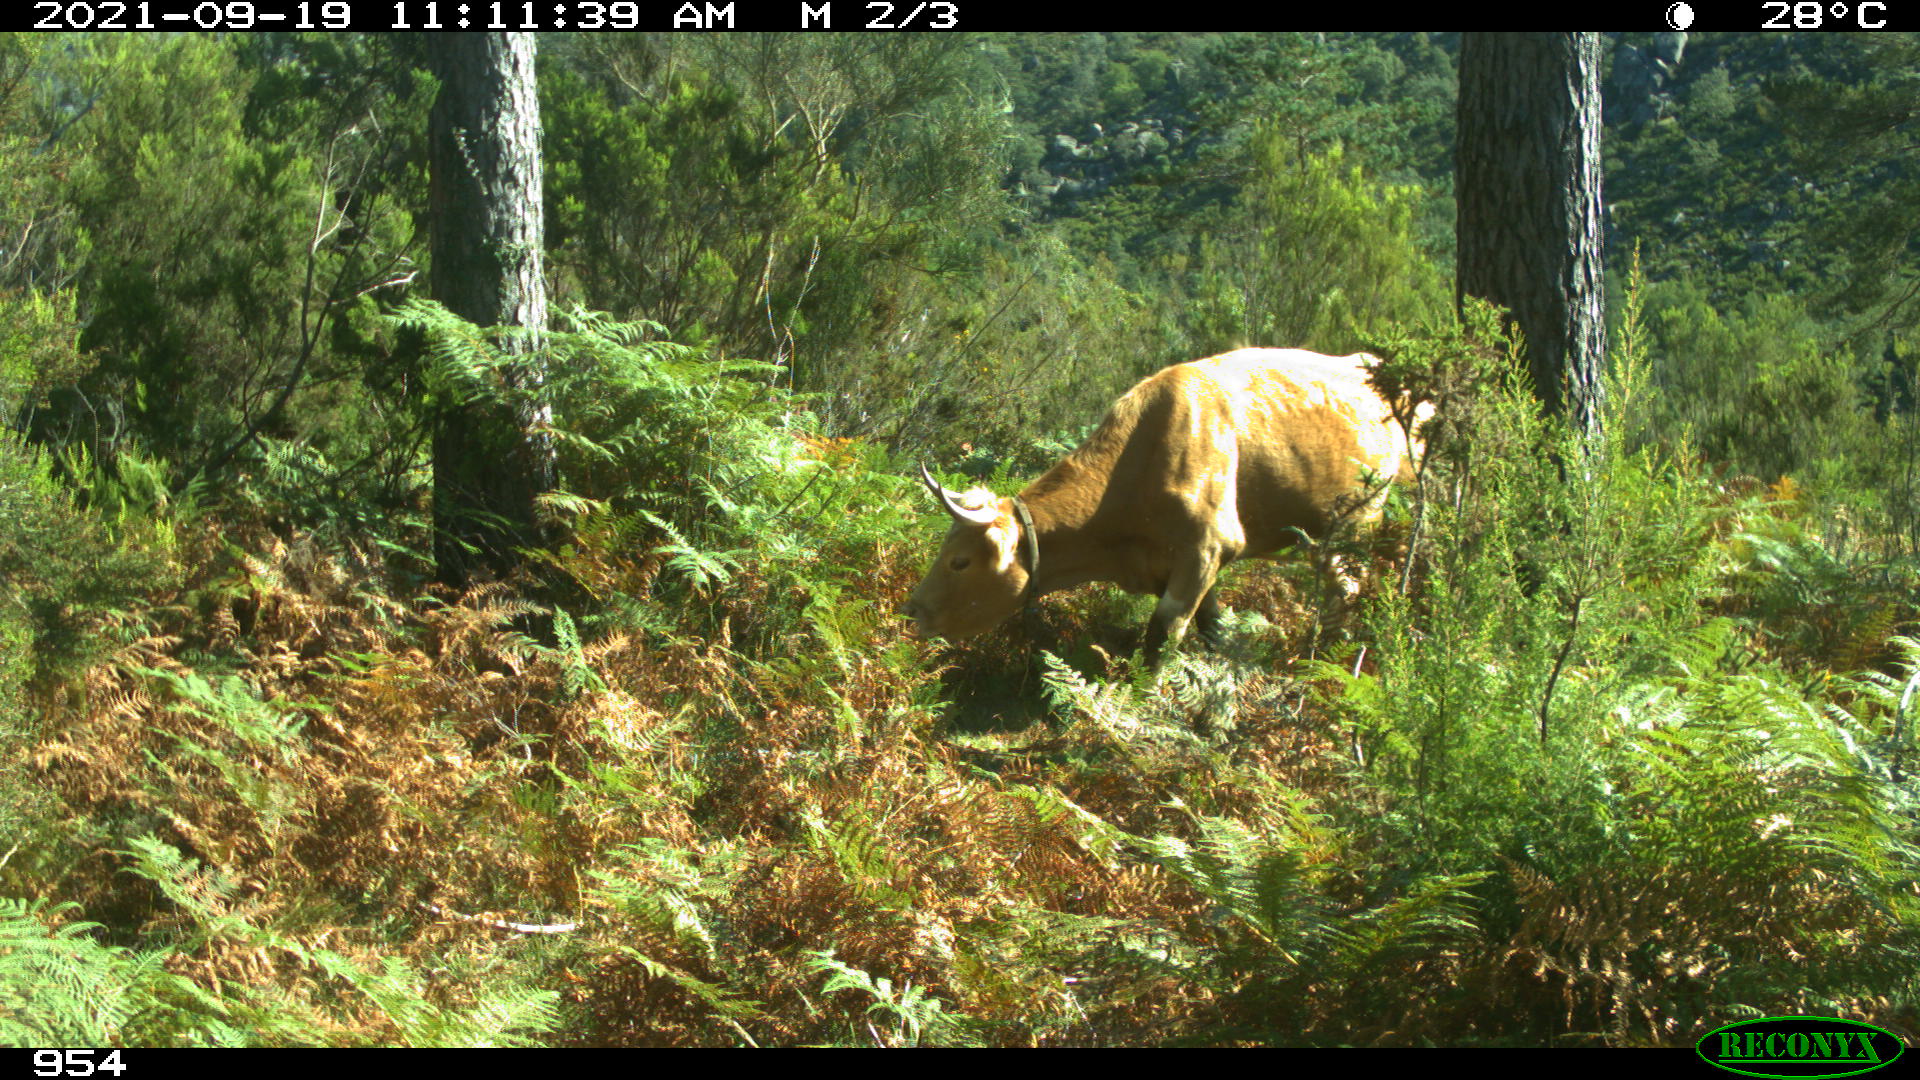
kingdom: Animalia
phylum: Chordata
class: Mammalia
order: Artiodactyla
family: Bovidae
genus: Bos
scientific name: Bos taurus
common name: Domesticated cattle
